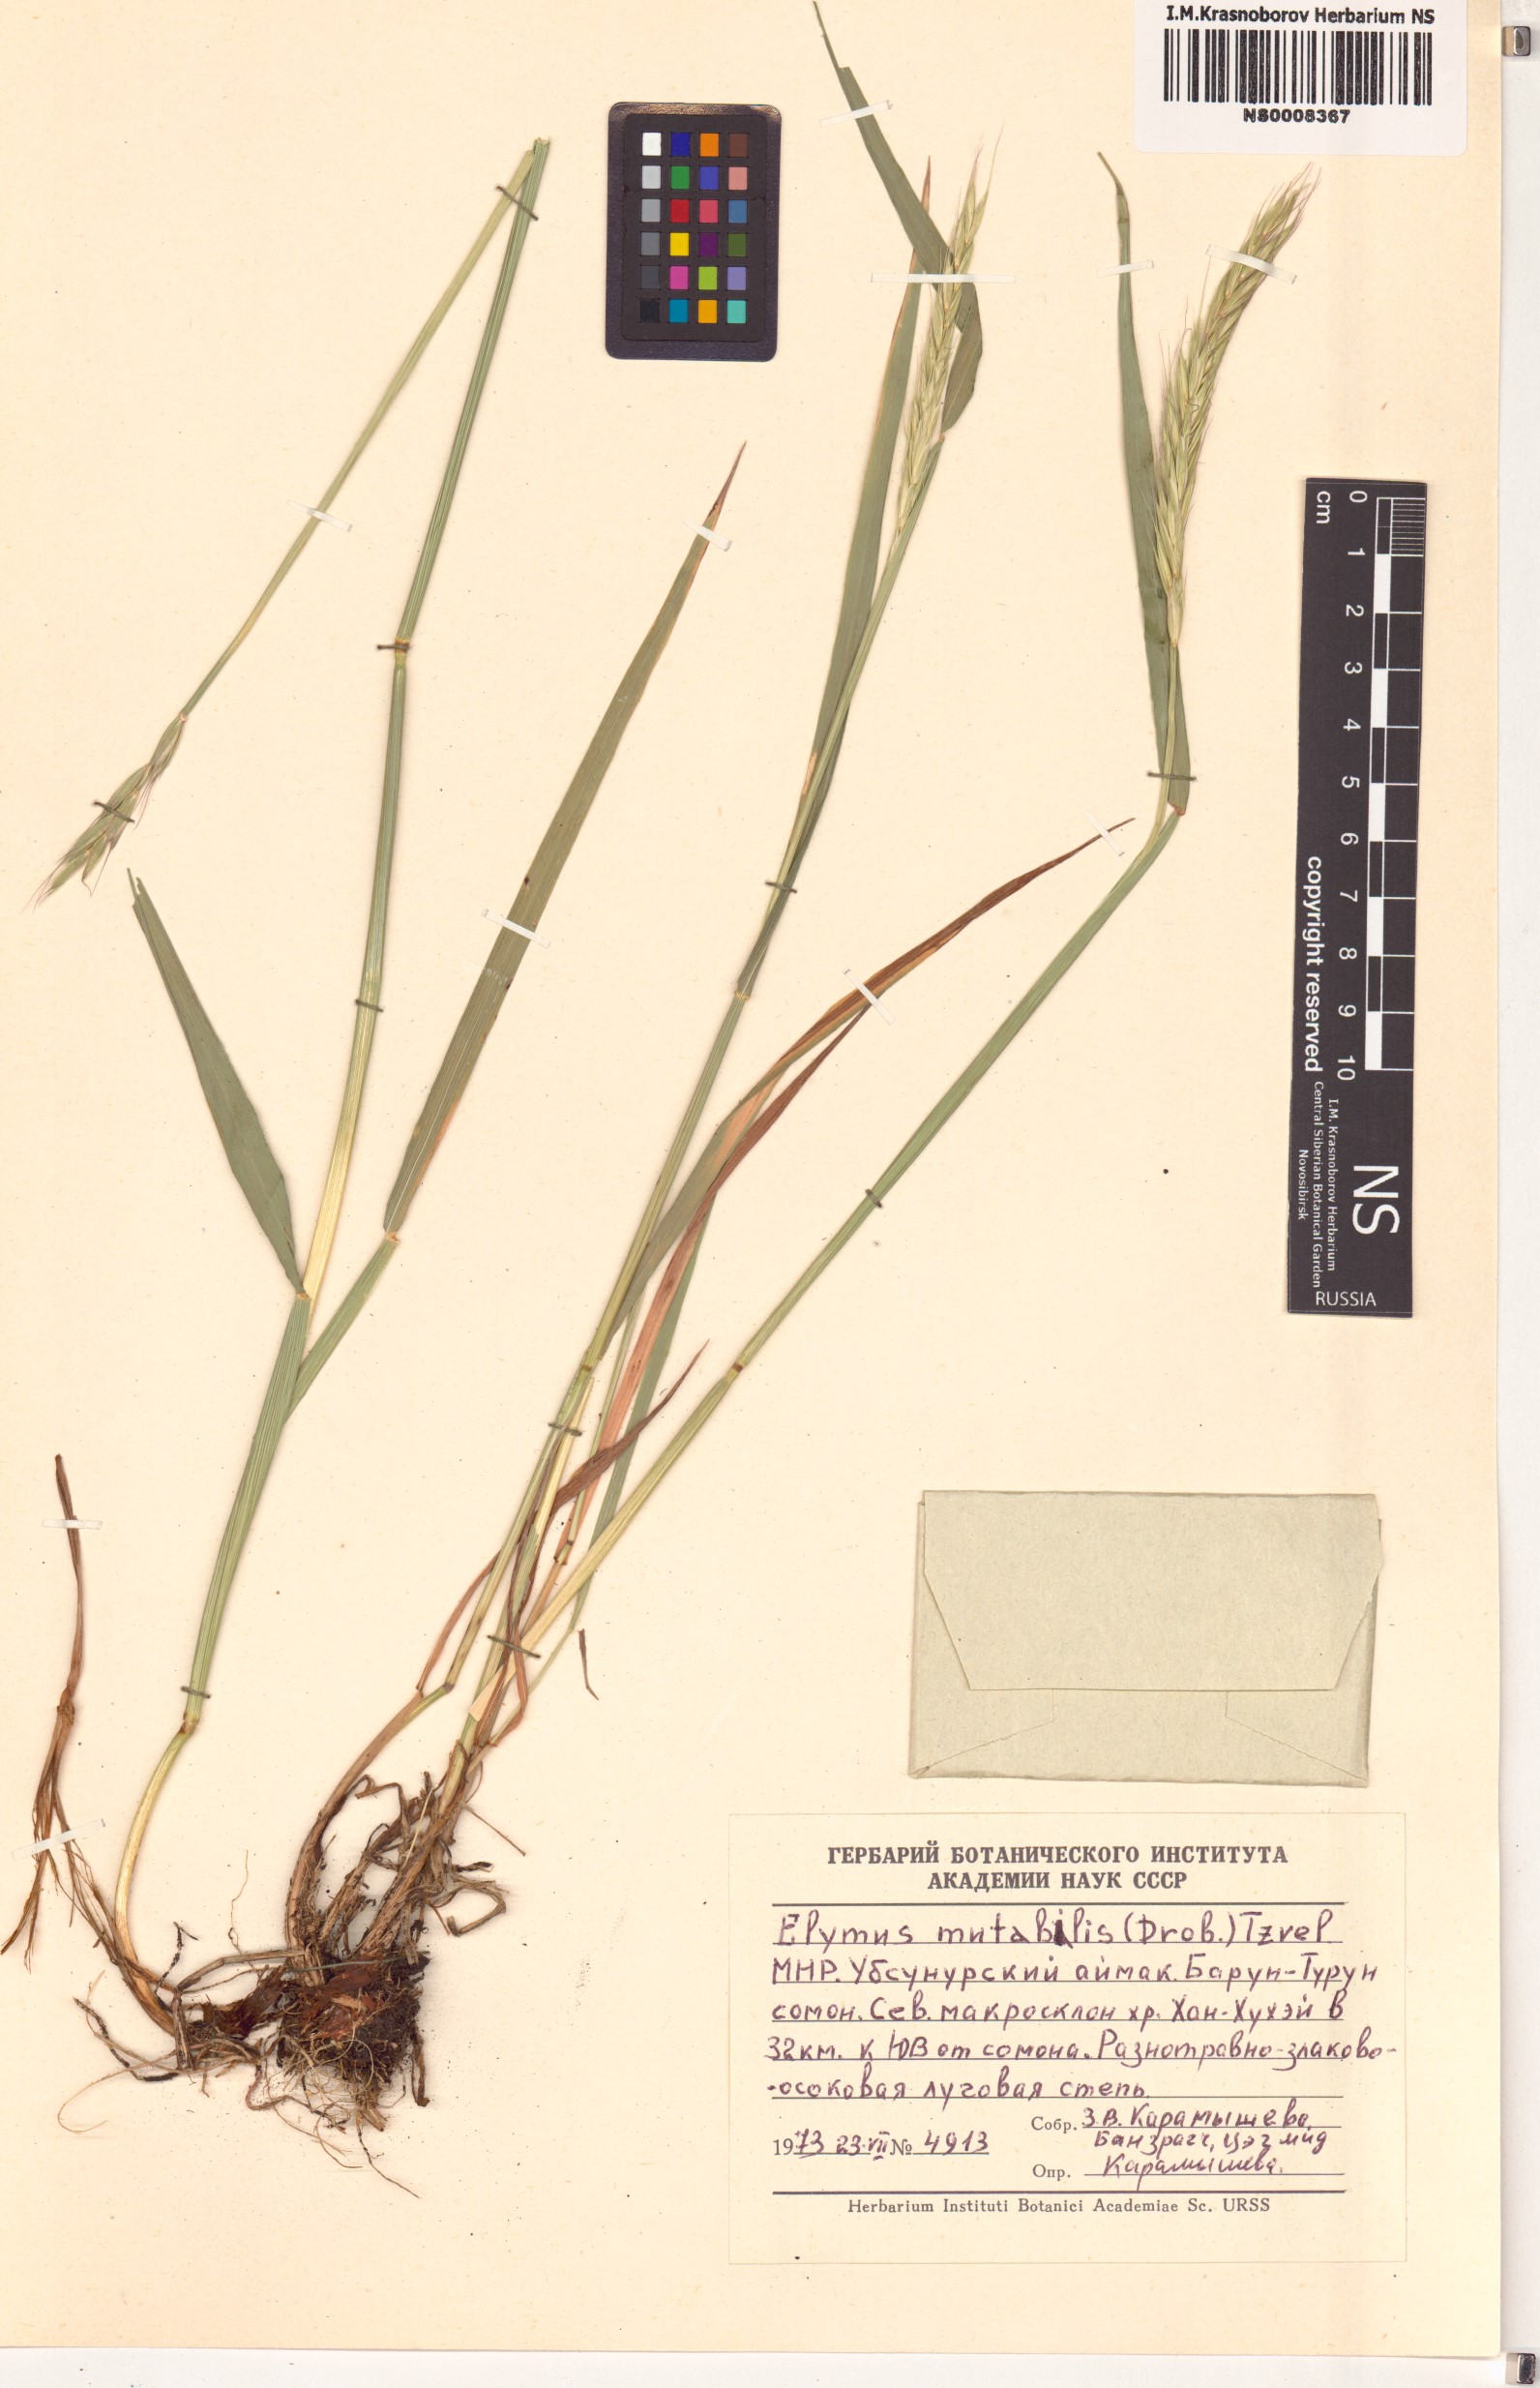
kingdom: Plantae
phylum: Tracheophyta
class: Liliopsida
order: Poales
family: Poaceae
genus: Elymus
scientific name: Elymus mutabilis
